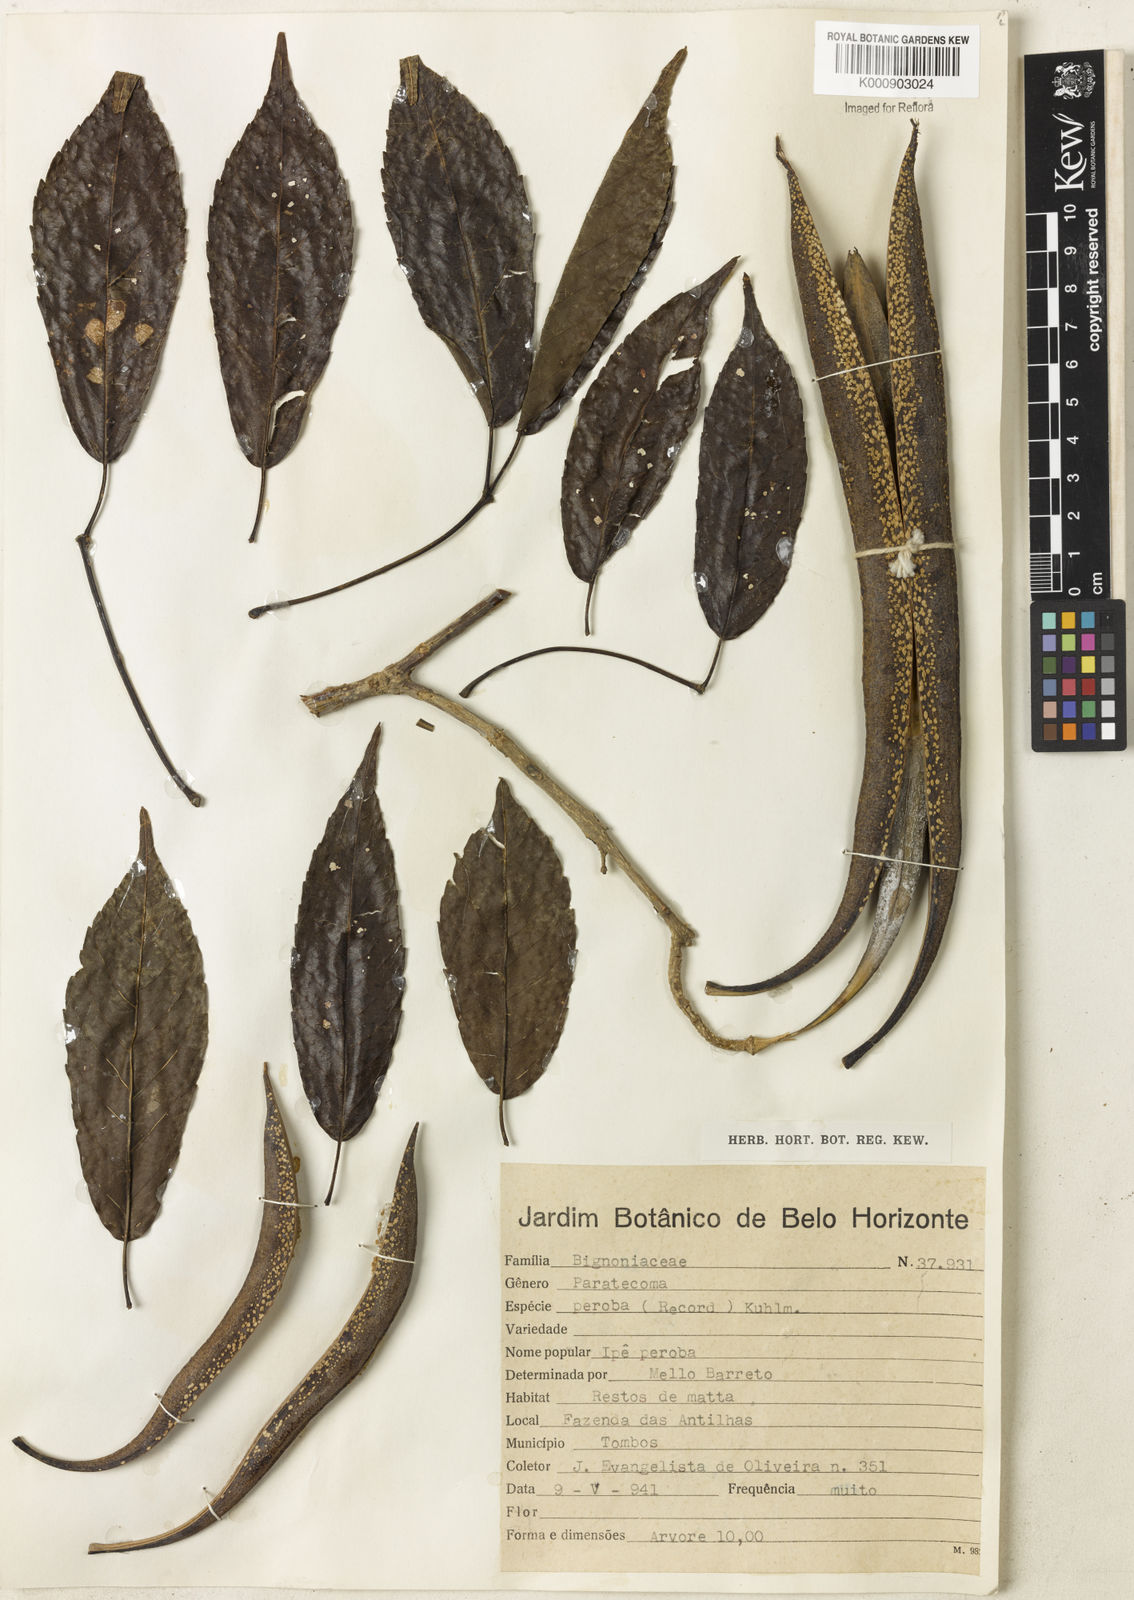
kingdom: Plantae
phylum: Tracheophyta
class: Magnoliopsida
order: Lamiales
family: Bignoniaceae
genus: Paratecoma
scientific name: Paratecoma peroba
